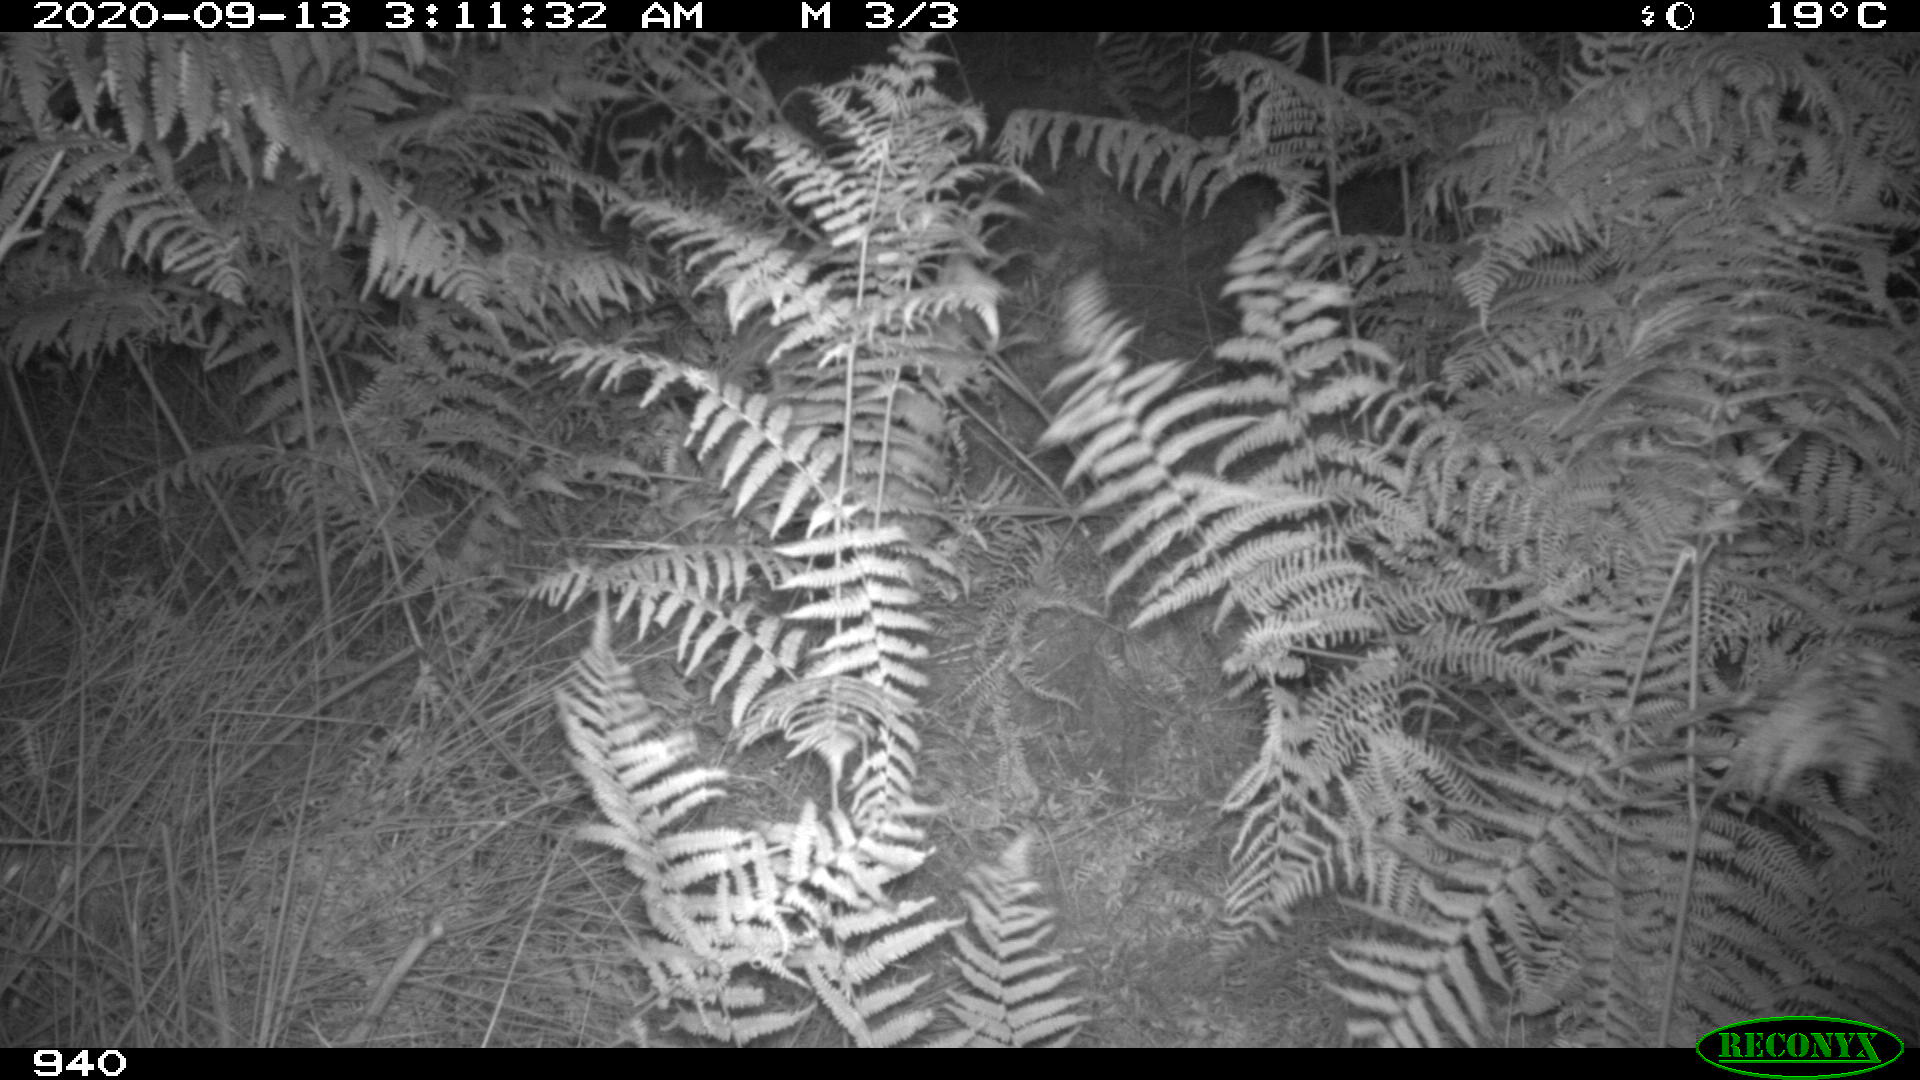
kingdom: Animalia
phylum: Chordata
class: Mammalia
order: Artiodactyla
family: Suidae
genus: Sus
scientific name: Sus scrofa
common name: Wild boar
